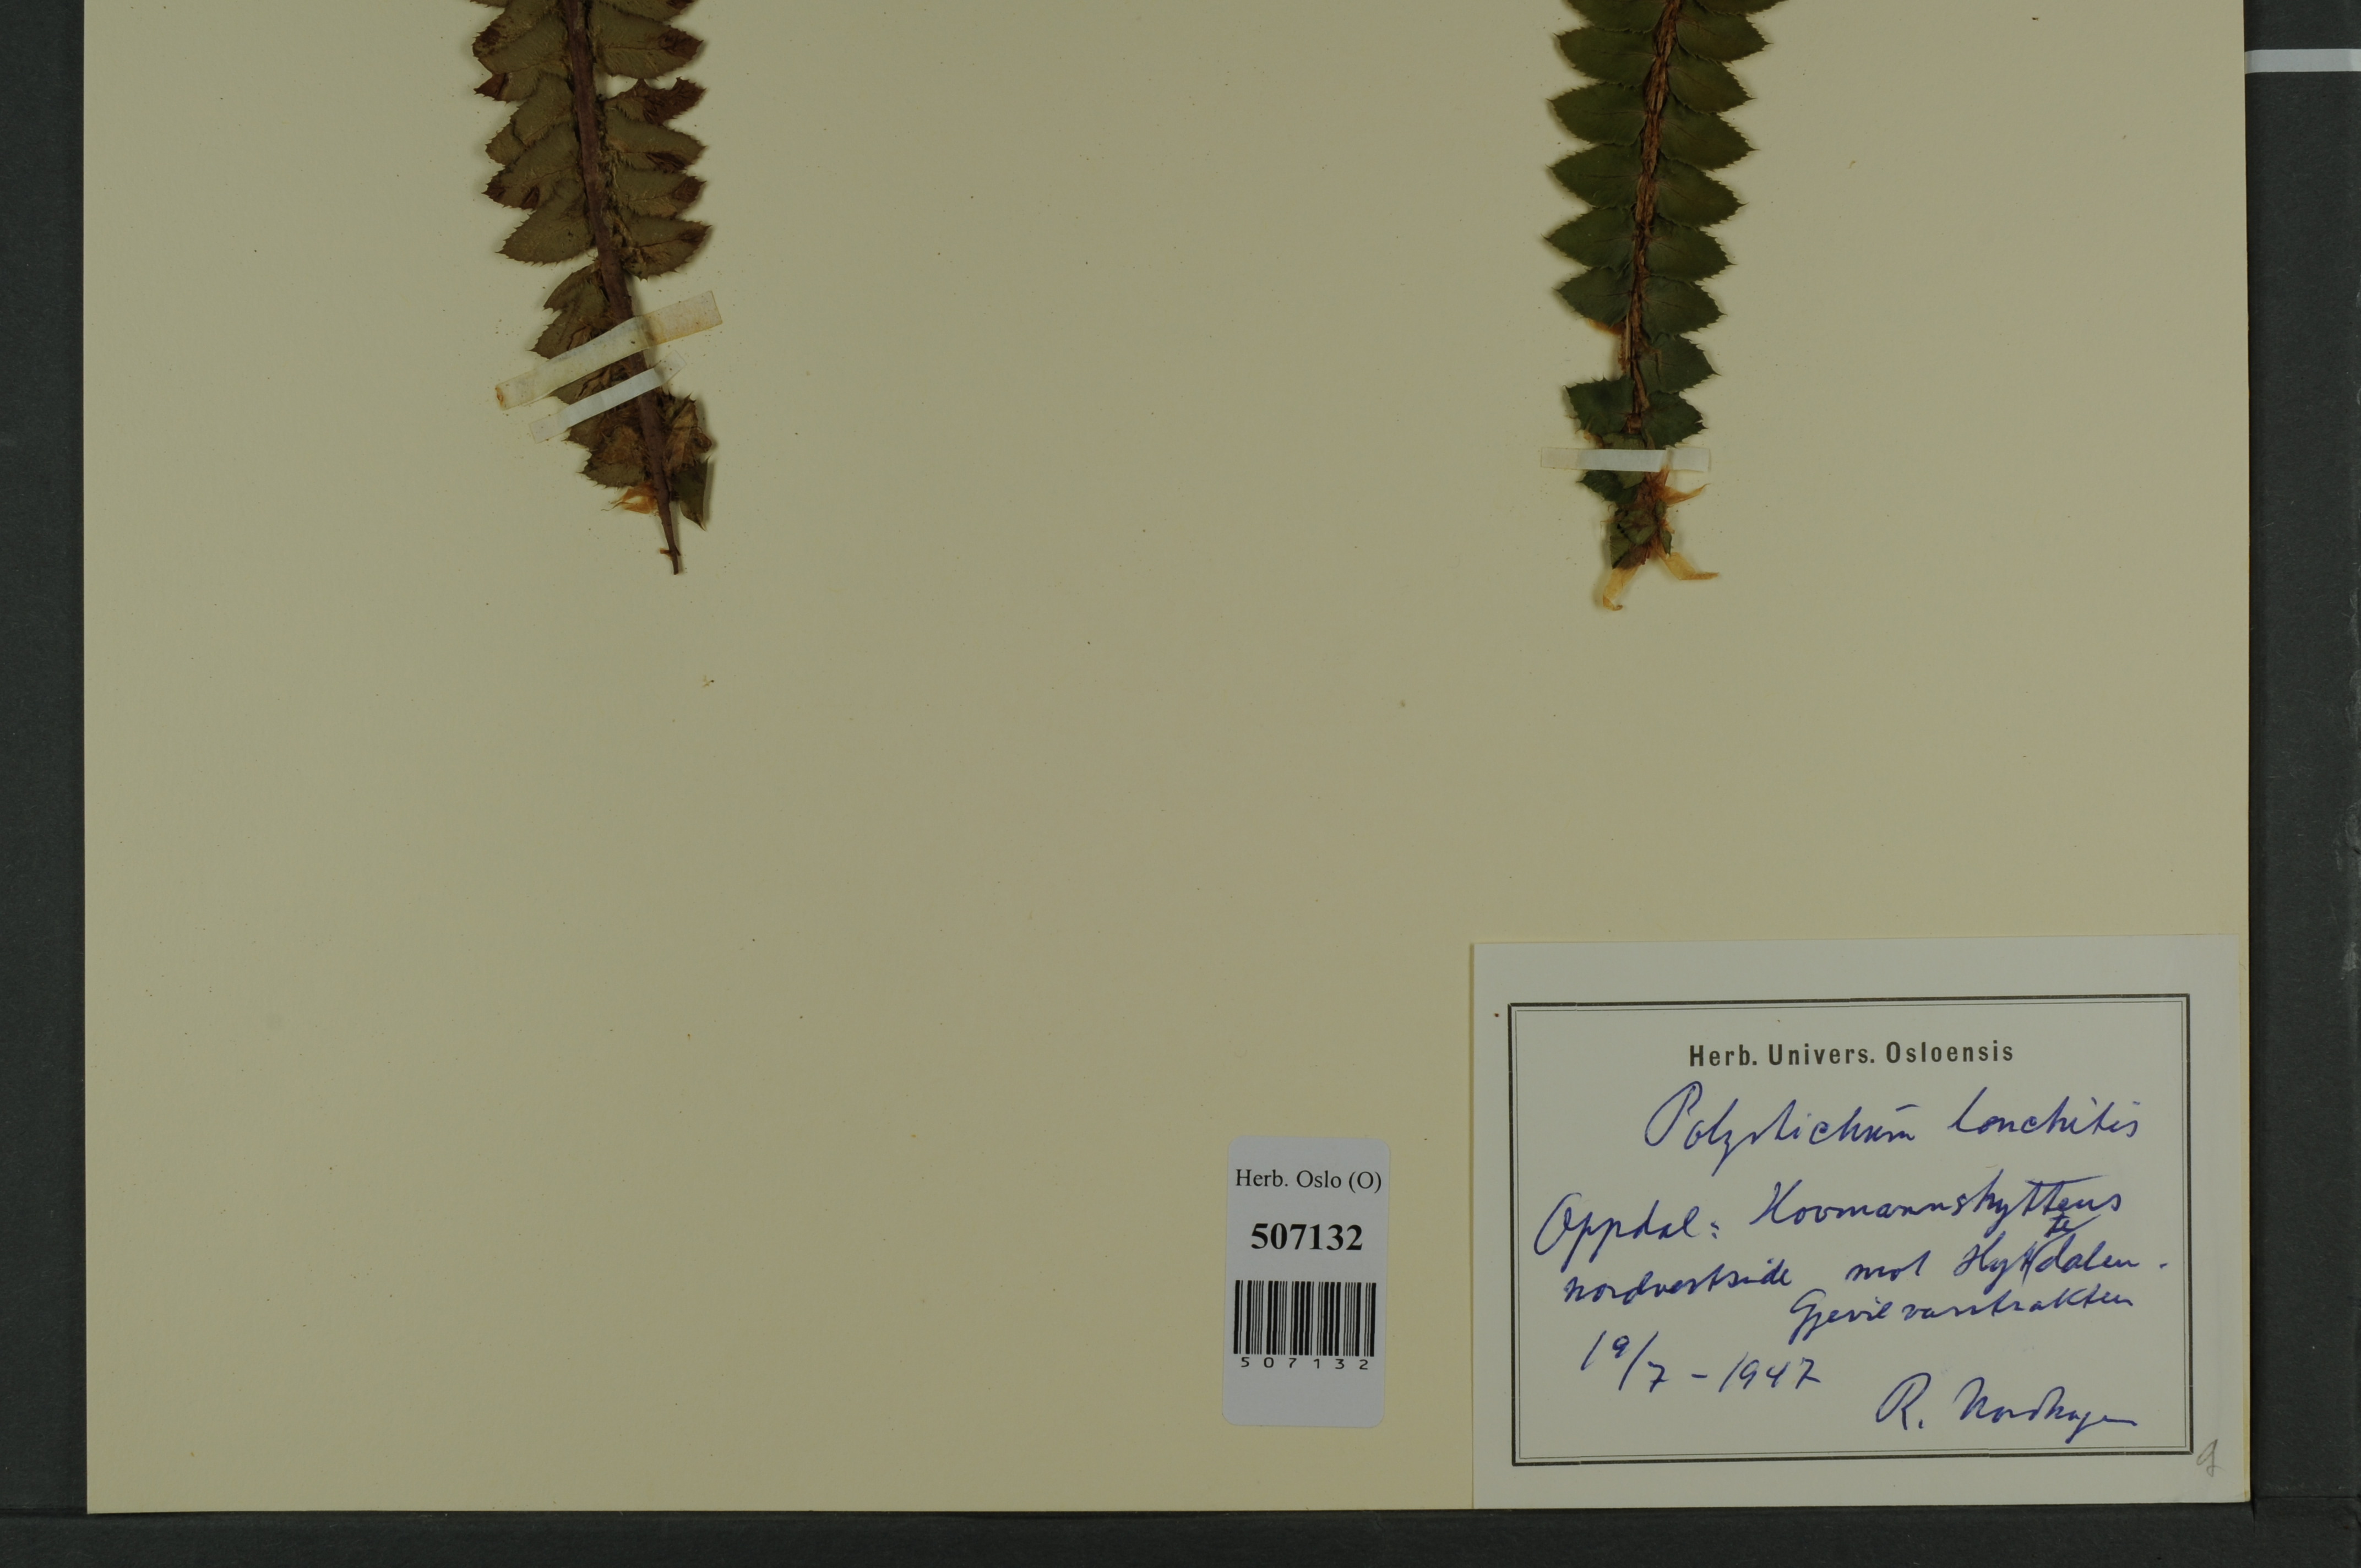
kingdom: Plantae
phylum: Tracheophyta
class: Polypodiopsida
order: Polypodiales
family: Dryopteridaceae
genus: Polystichum
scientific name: Polystichum lonchitis
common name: Holly fern
